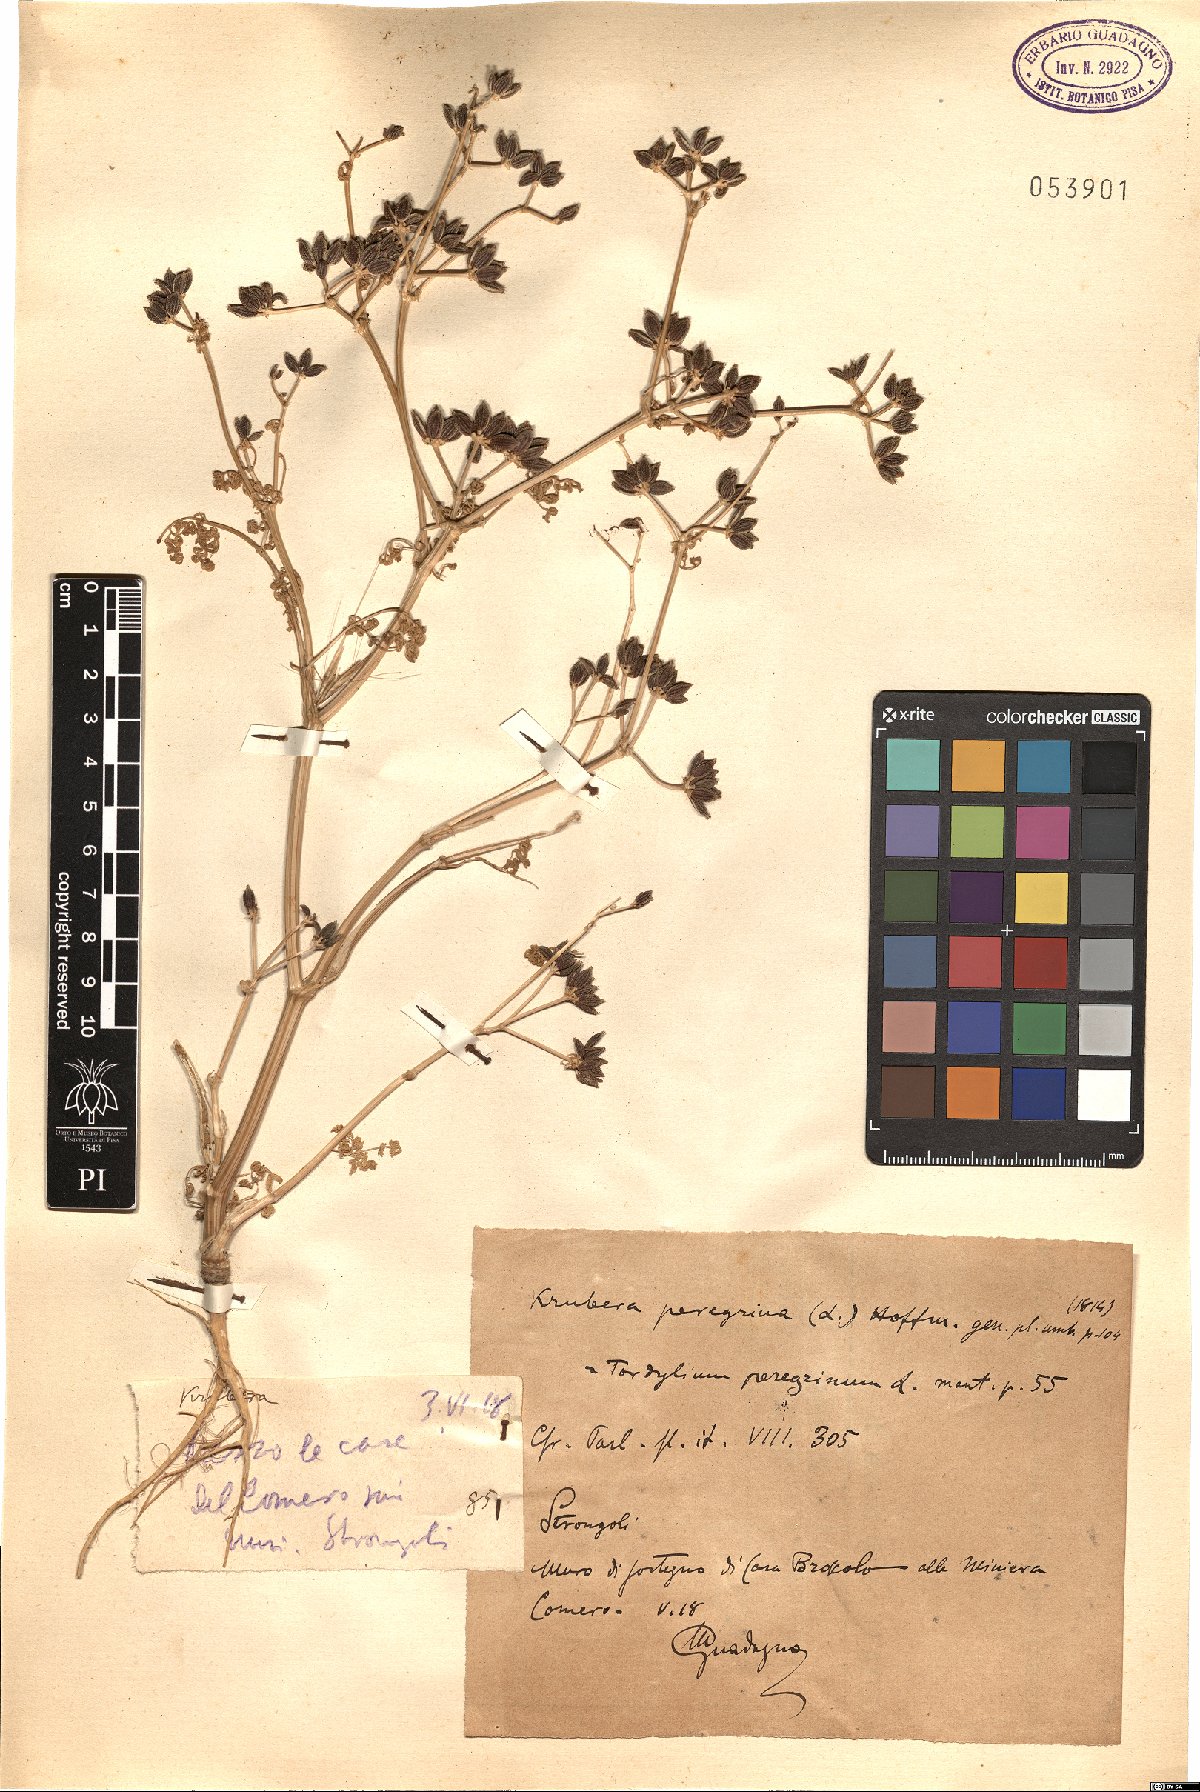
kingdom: Plantae
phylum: Tracheophyta
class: Magnoliopsida
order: Apiales
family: Apiaceae
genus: Krubera
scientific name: Krubera peregrina
